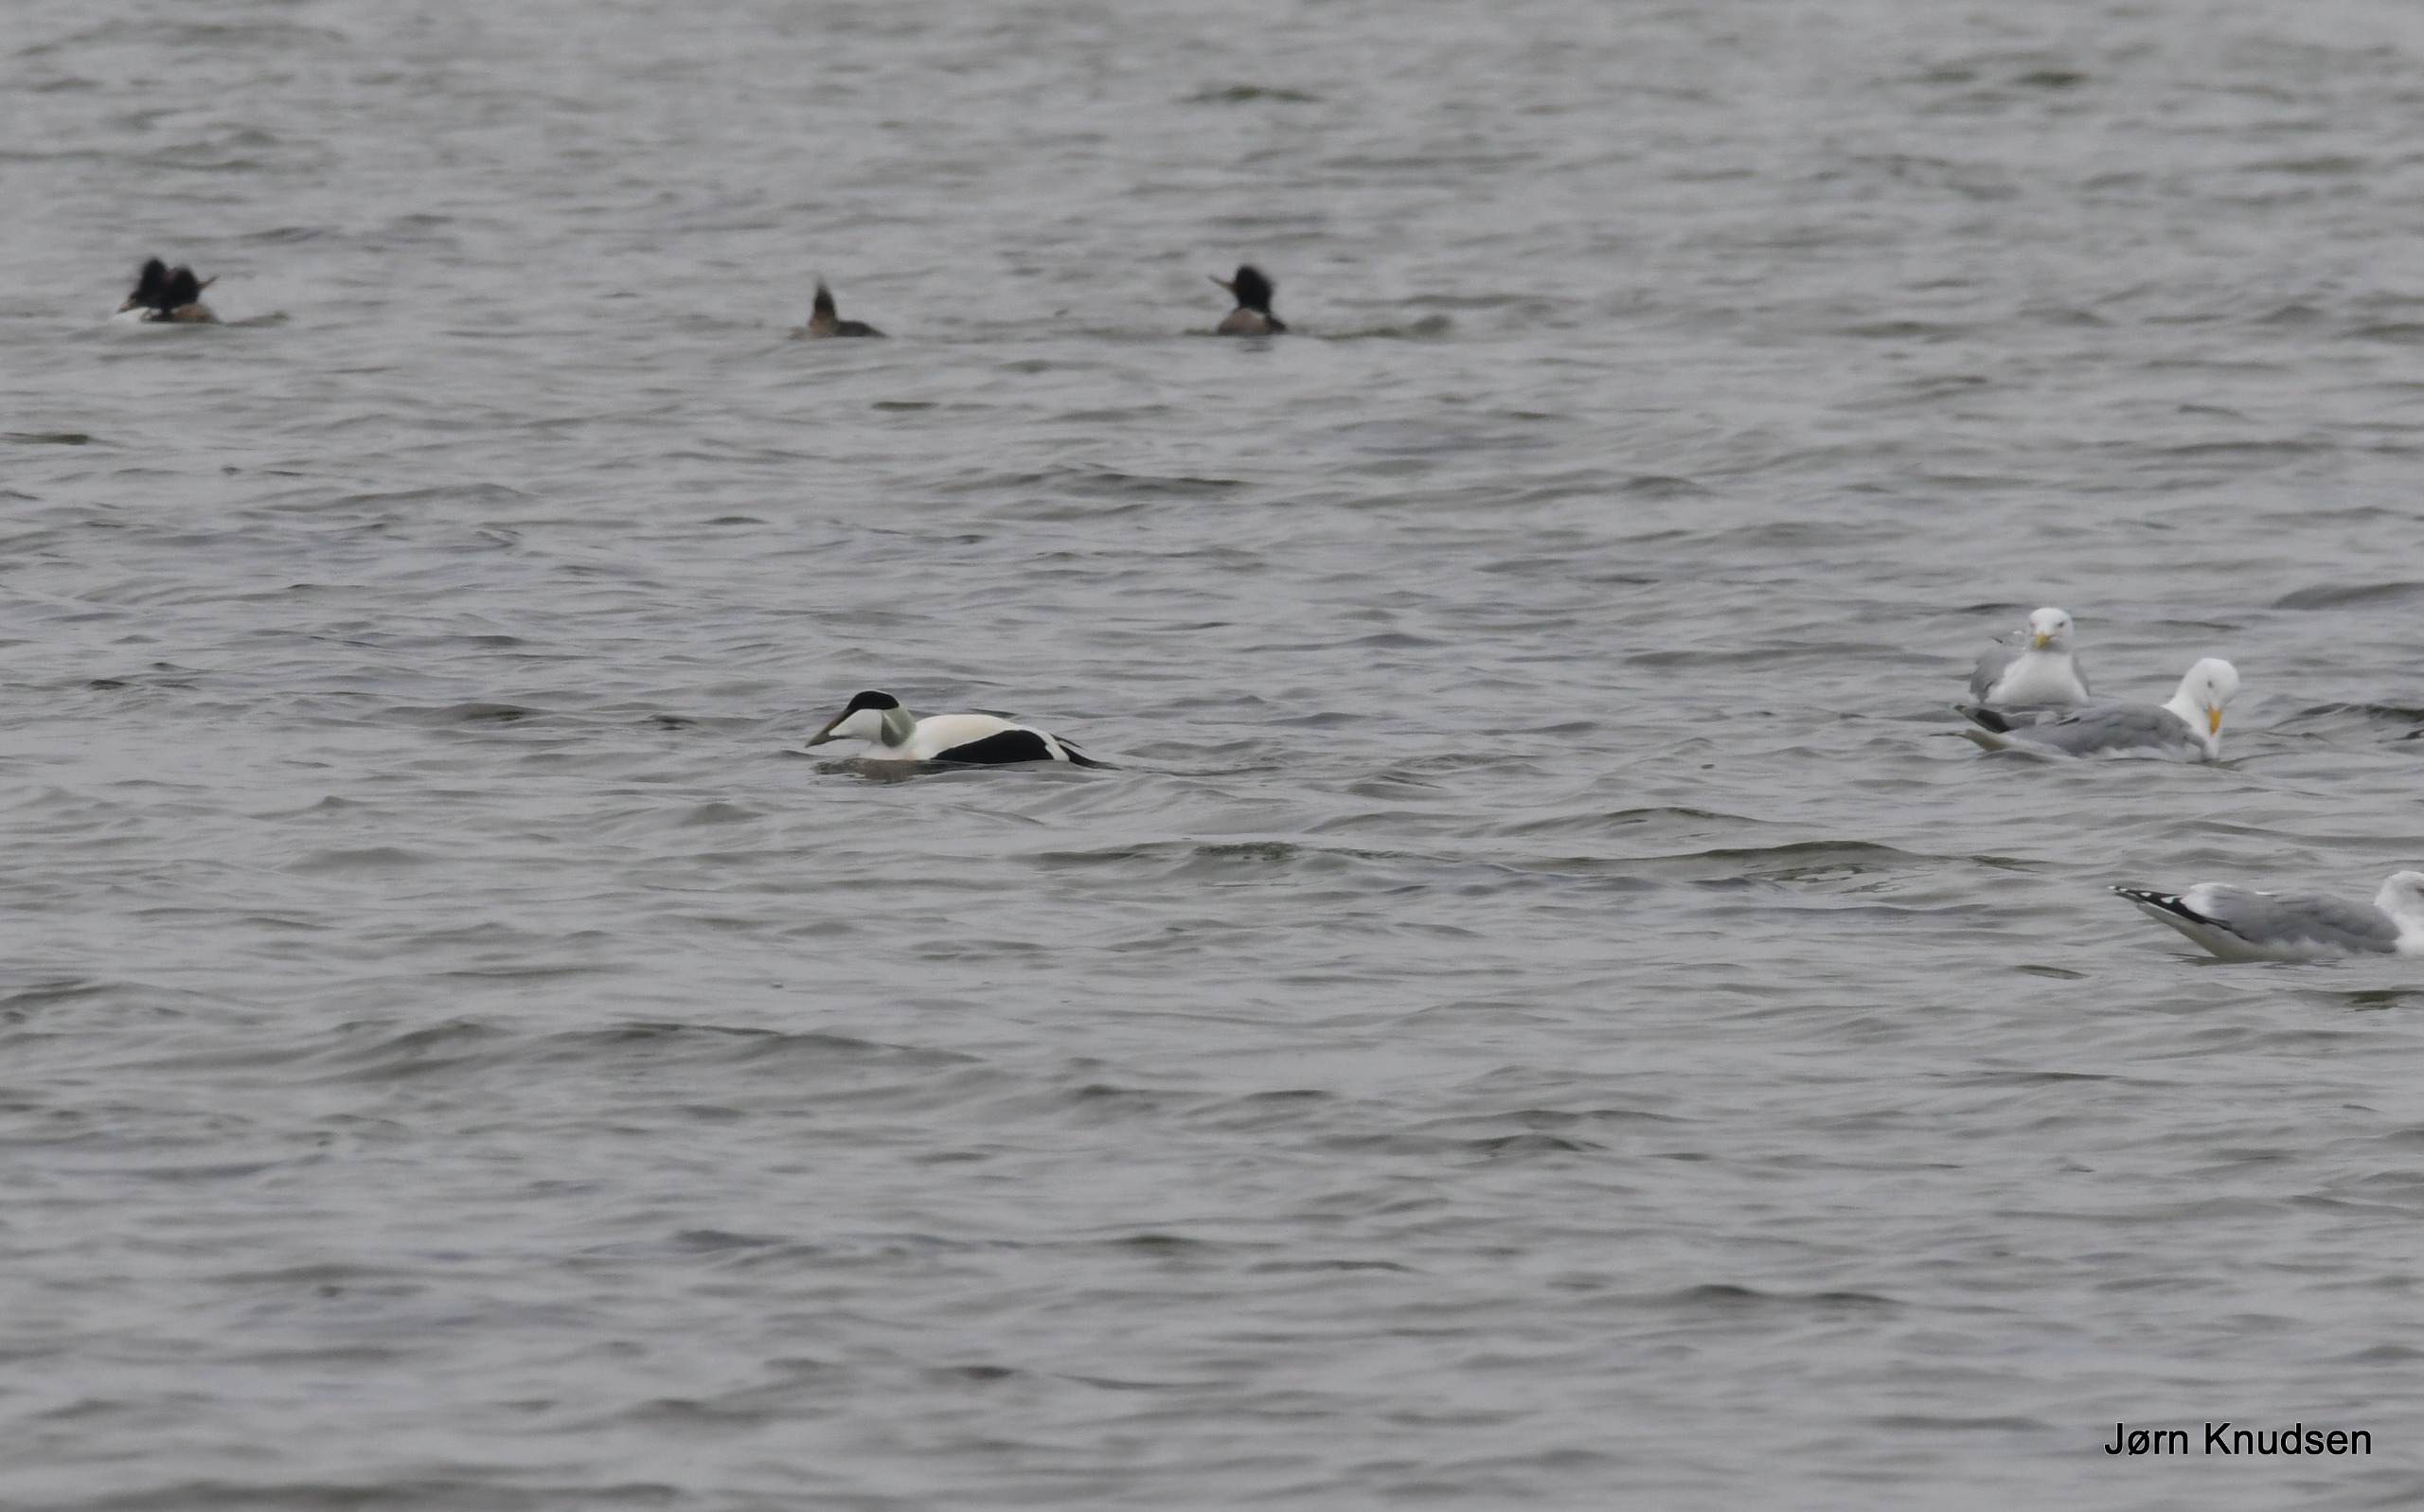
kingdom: Animalia
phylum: Chordata
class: Aves
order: Anseriformes
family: Anatidae
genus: Somateria
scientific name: Somateria mollissima
